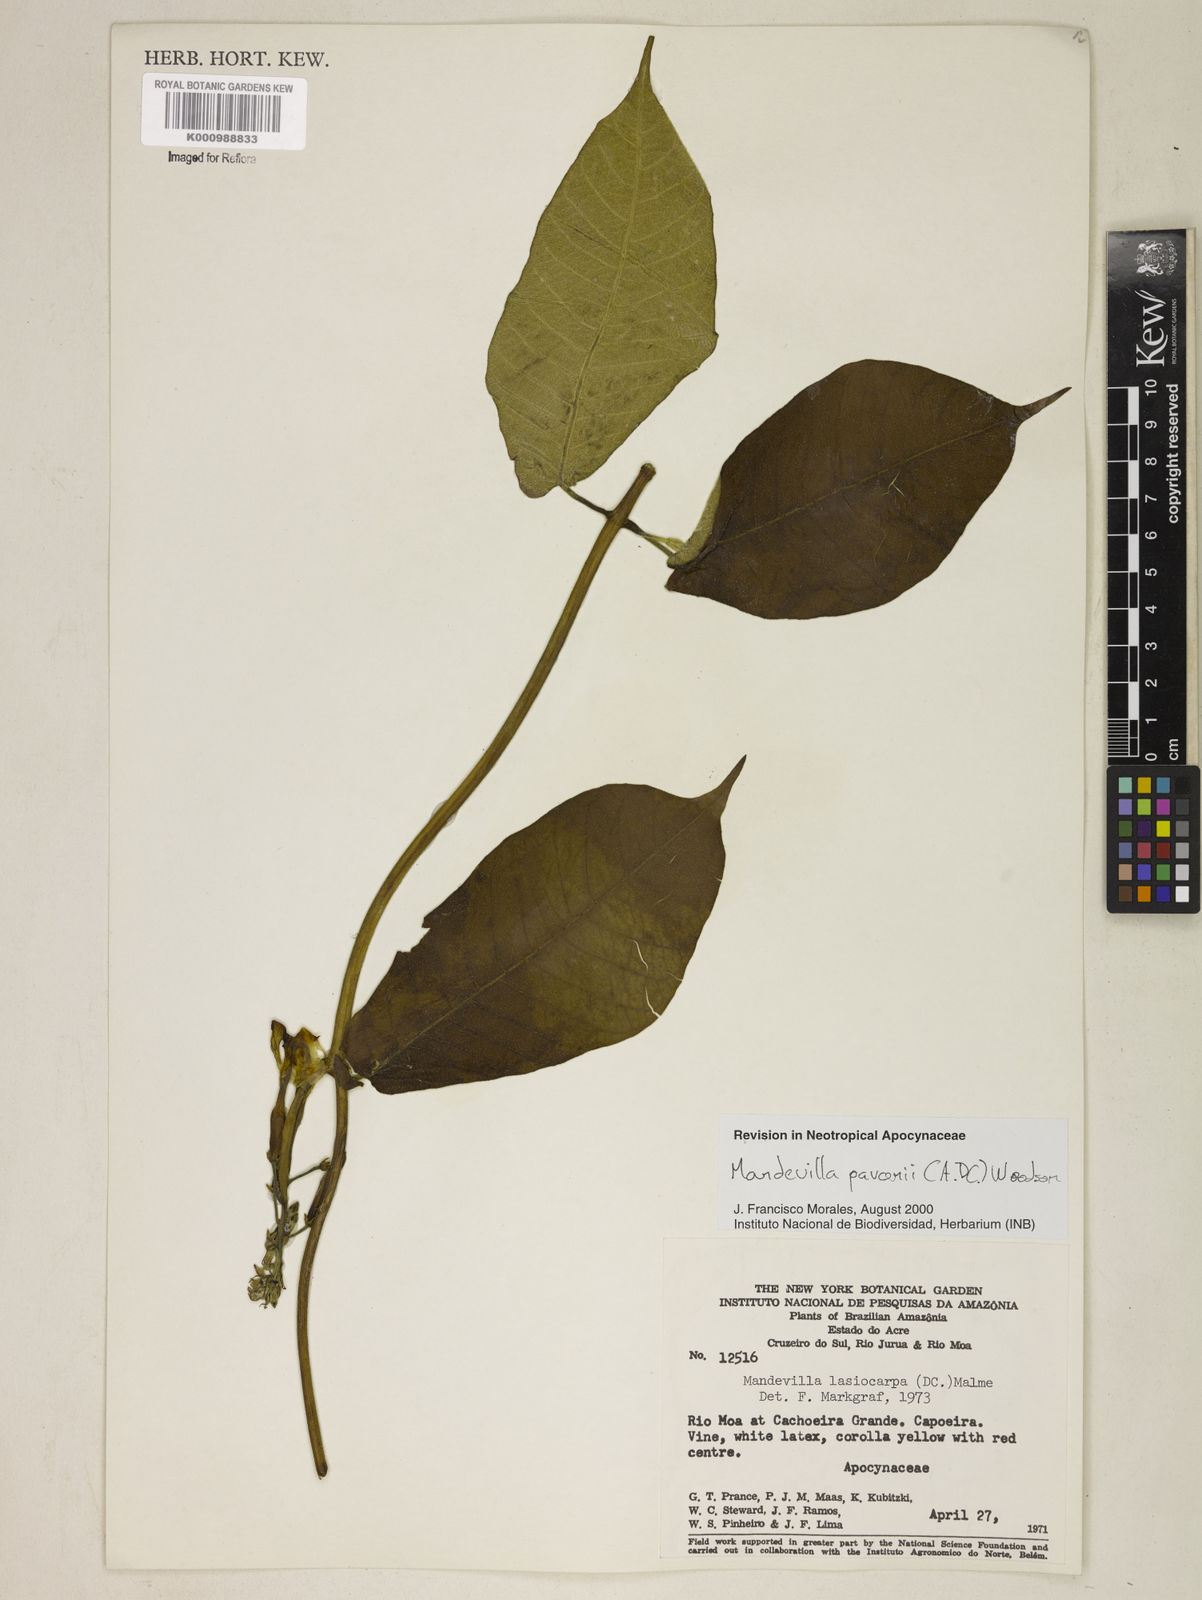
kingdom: Plantae
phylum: Tracheophyta
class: Magnoliopsida
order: Gentianales
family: Apocynaceae
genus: Mandevilla
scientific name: Mandevilla pavonii
